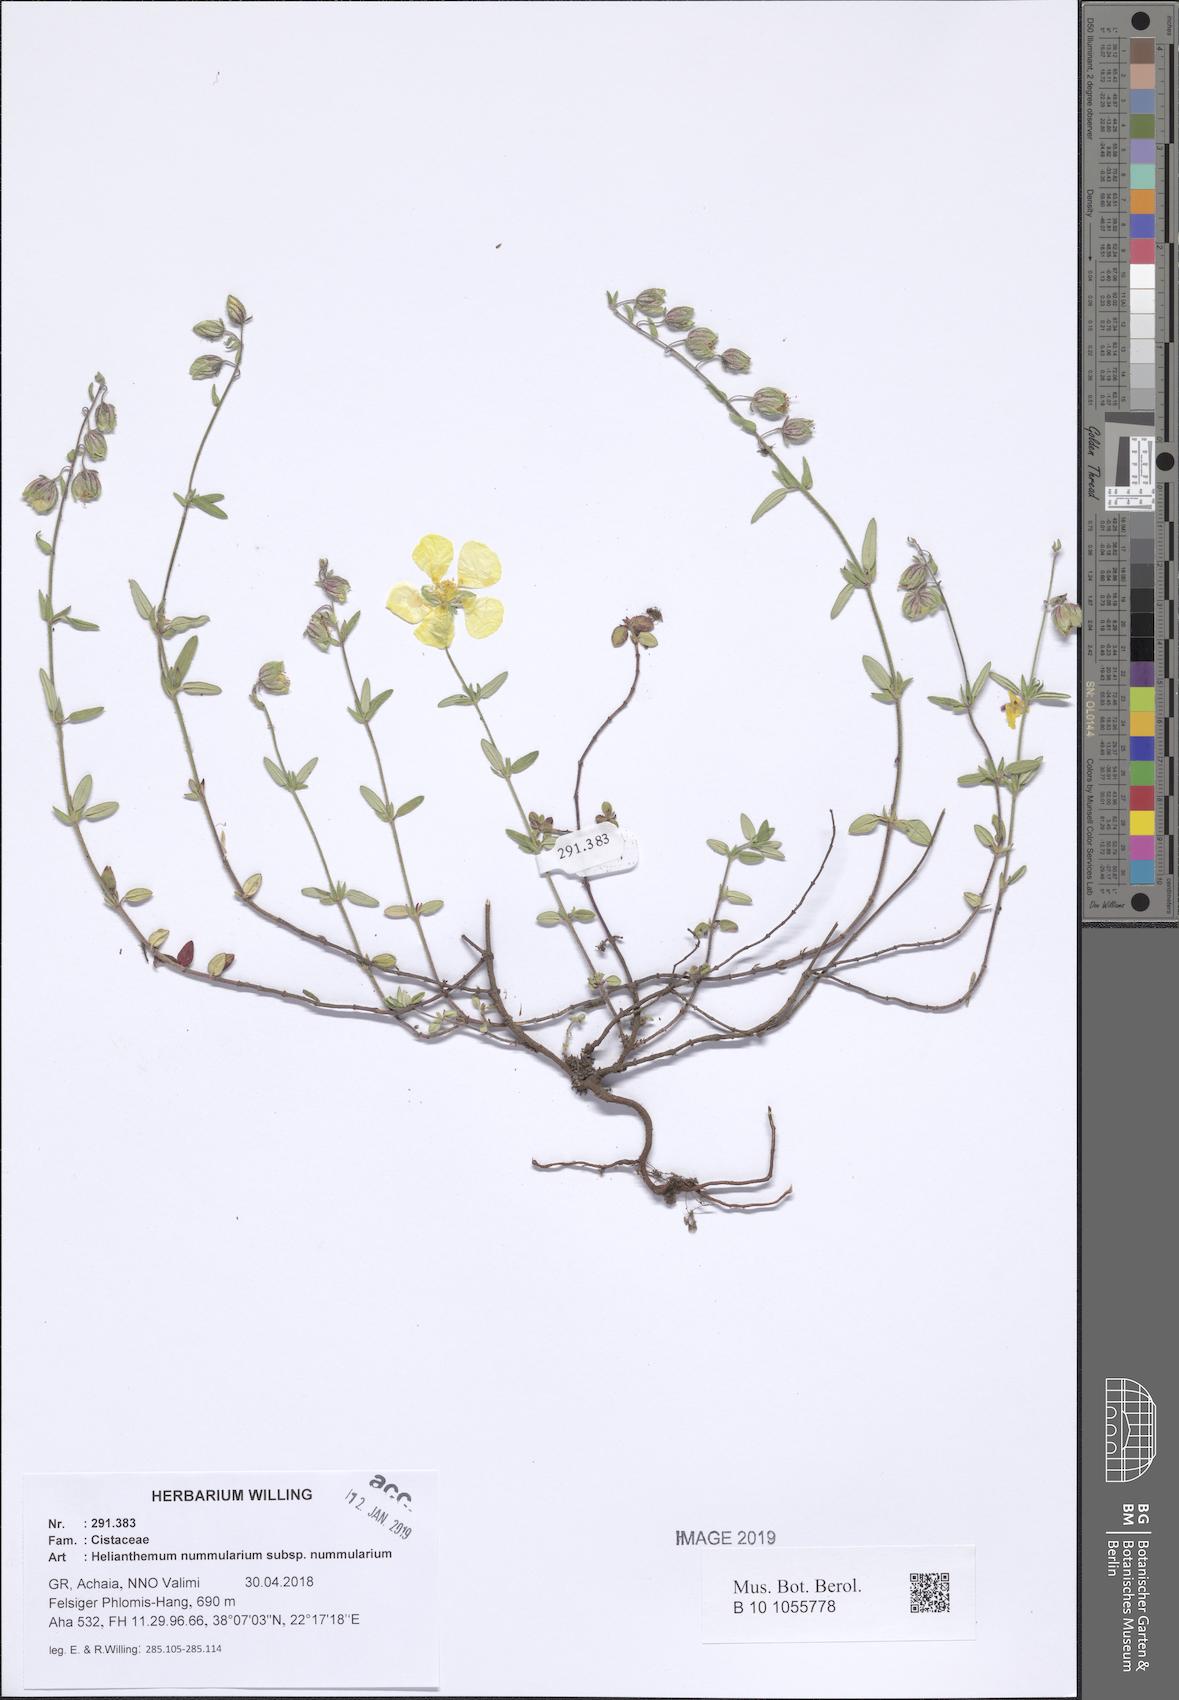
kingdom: Plantae
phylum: Tracheophyta
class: Magnoliopsida
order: Malvales
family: Cistaceae
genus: Helianthemum
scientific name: Helianthemum nummularium
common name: Common rock-rose
